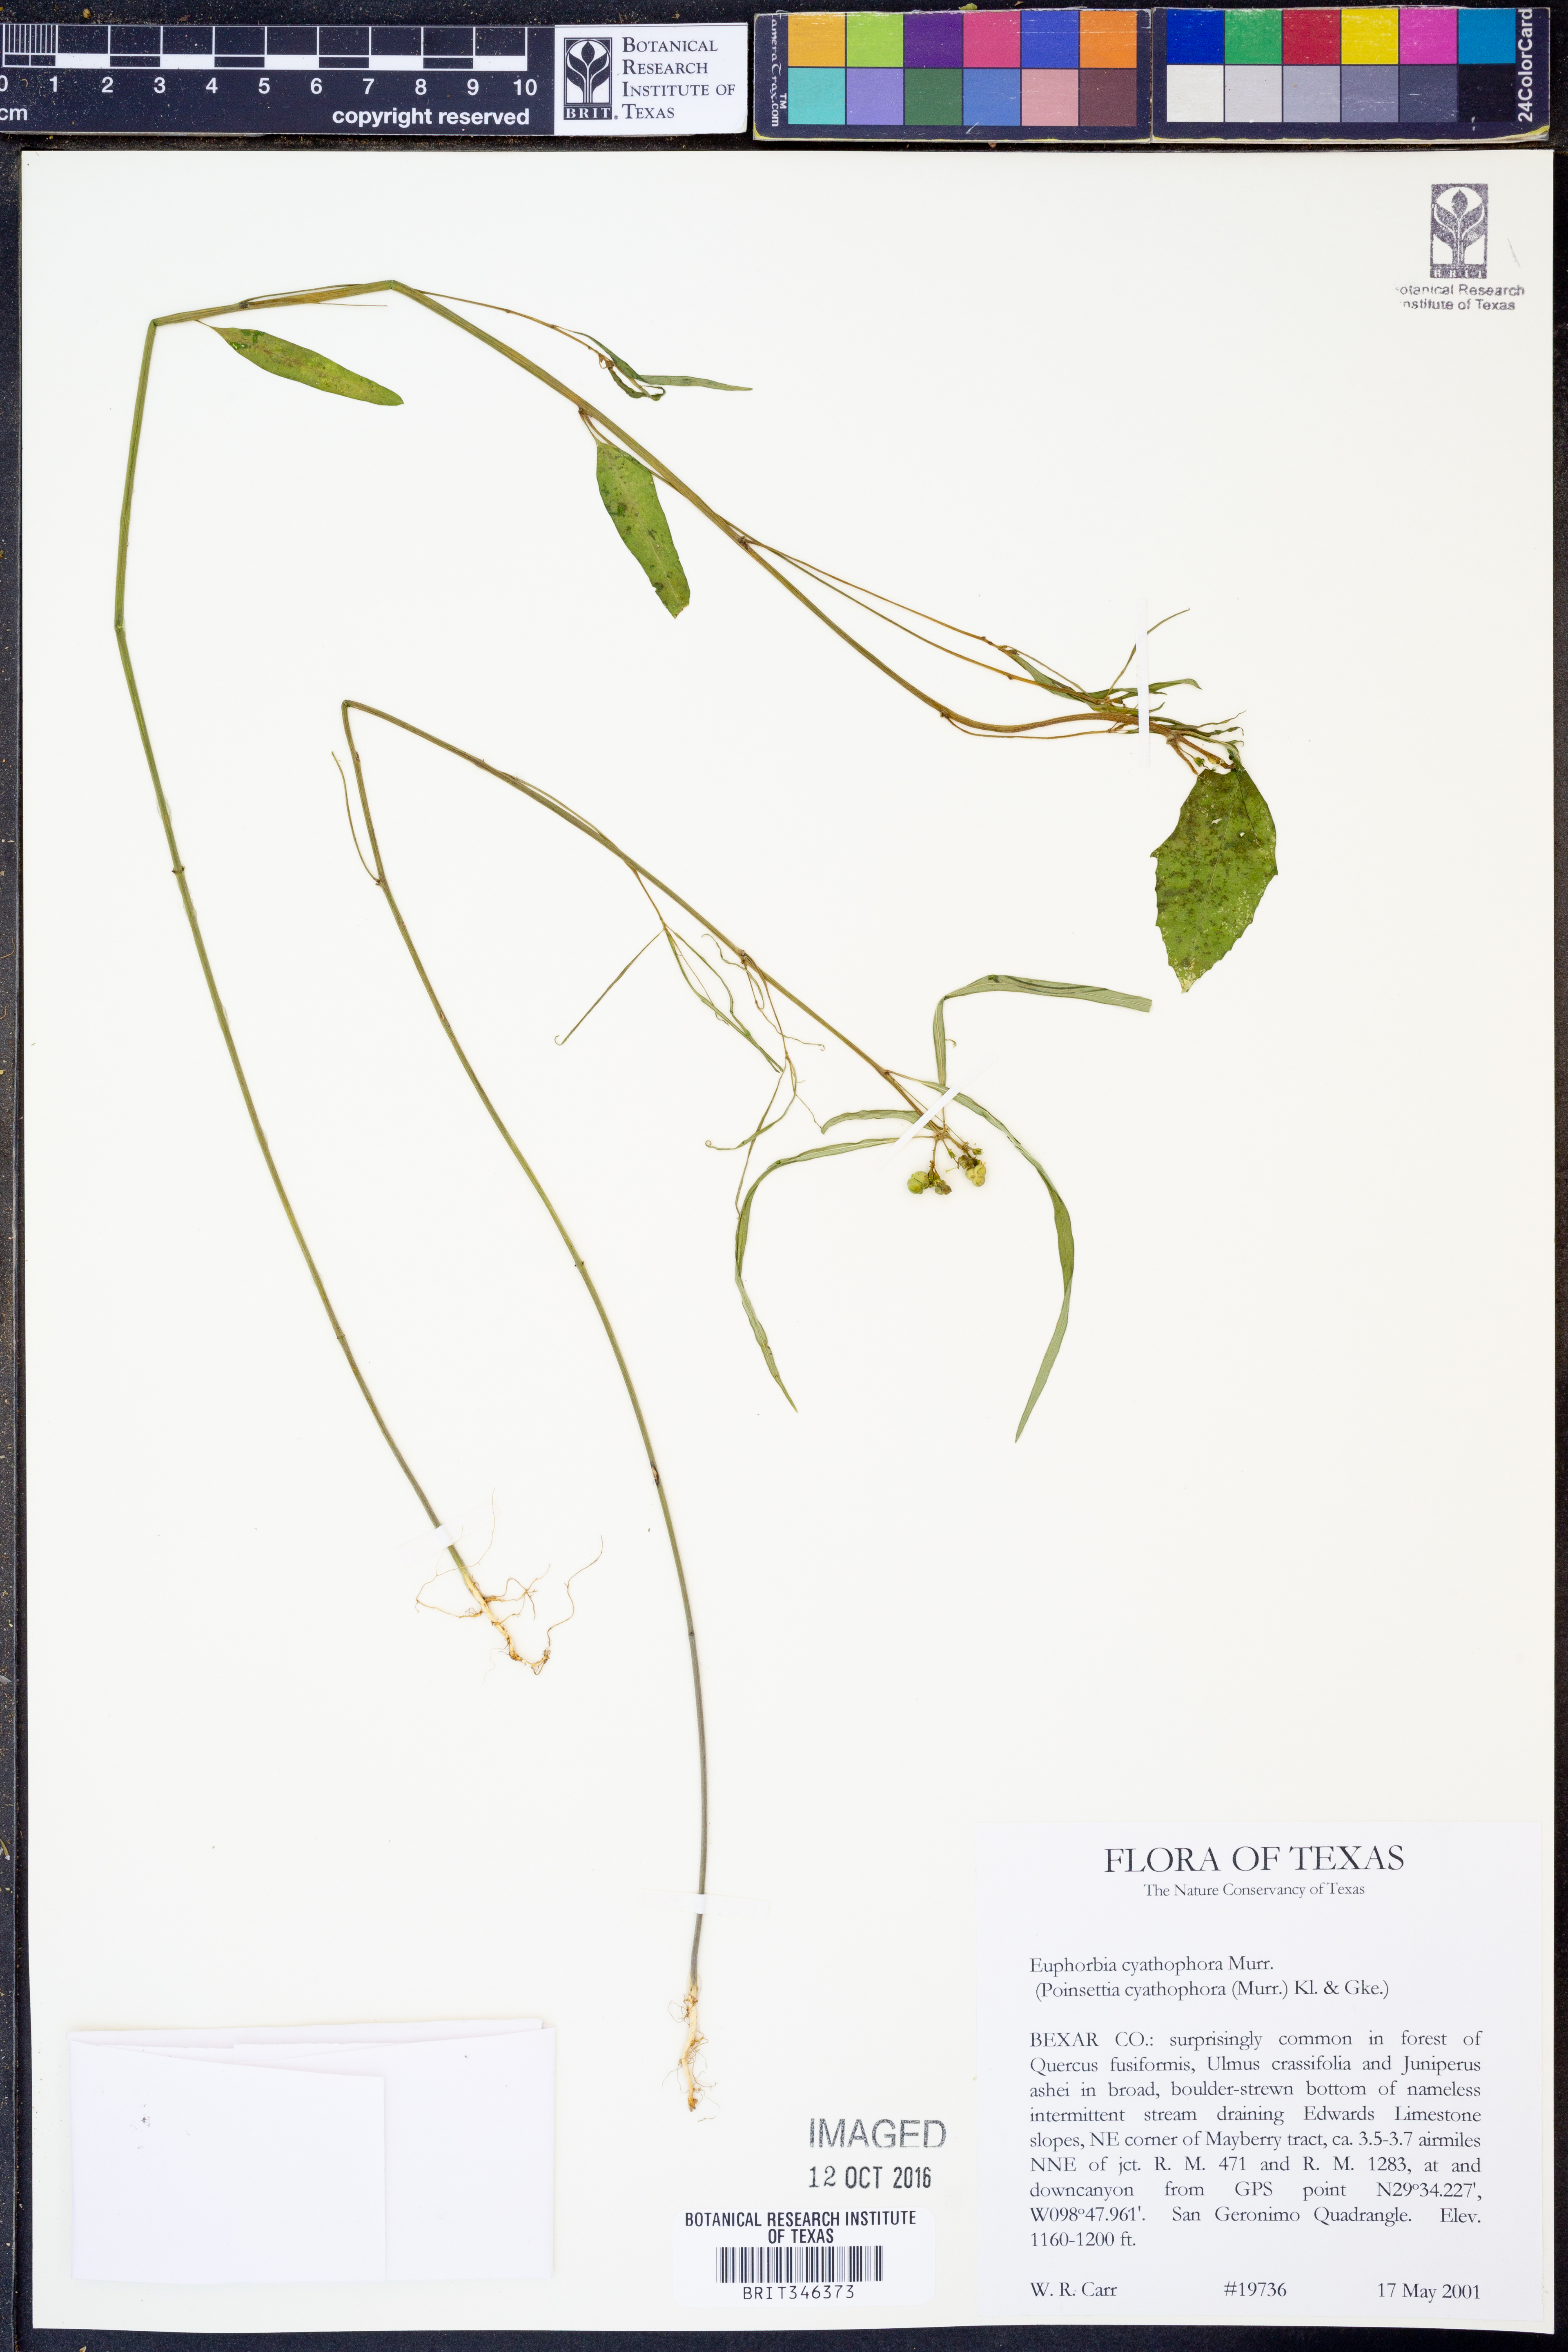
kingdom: Plantae
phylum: Tracheophyta
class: Magnoliopsida
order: Malpighiales
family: Euphorbiaceae
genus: Euphorbia
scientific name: Euphorbia heterophylla
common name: Mexican fireplant
